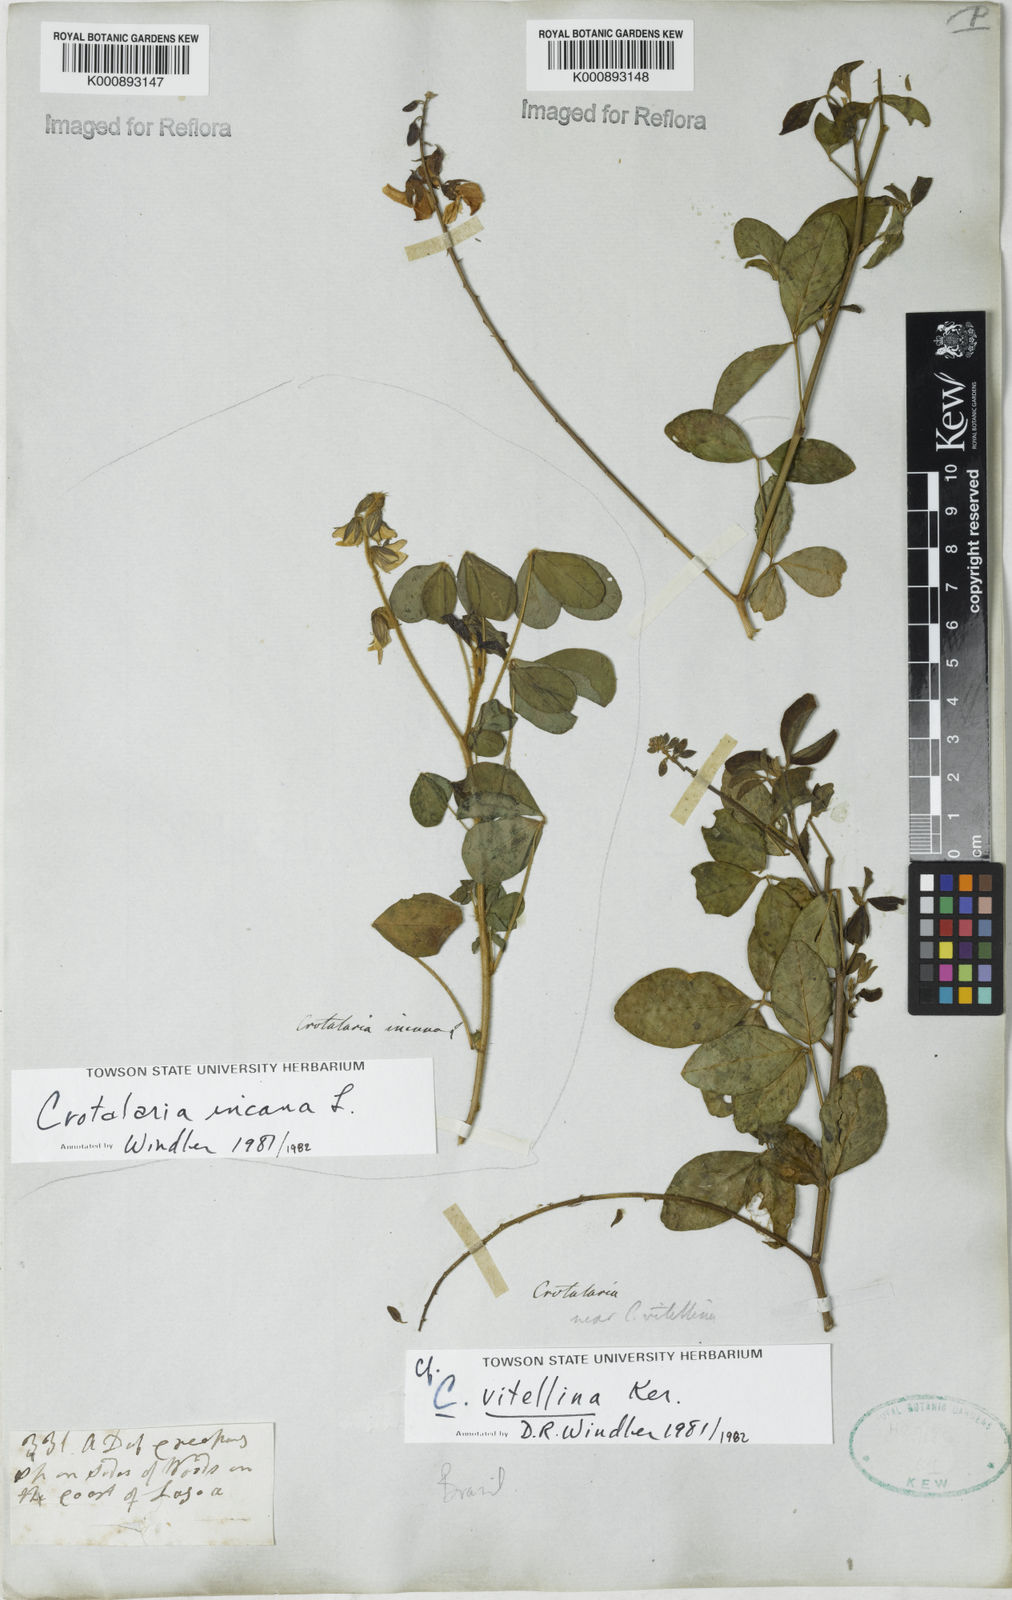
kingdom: Plantae
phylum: Tracheophyta
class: Magnoliopsida
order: Fabales
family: Fabaceae
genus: Crotalaria
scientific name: Crotalaria incana
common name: Shakeshake
